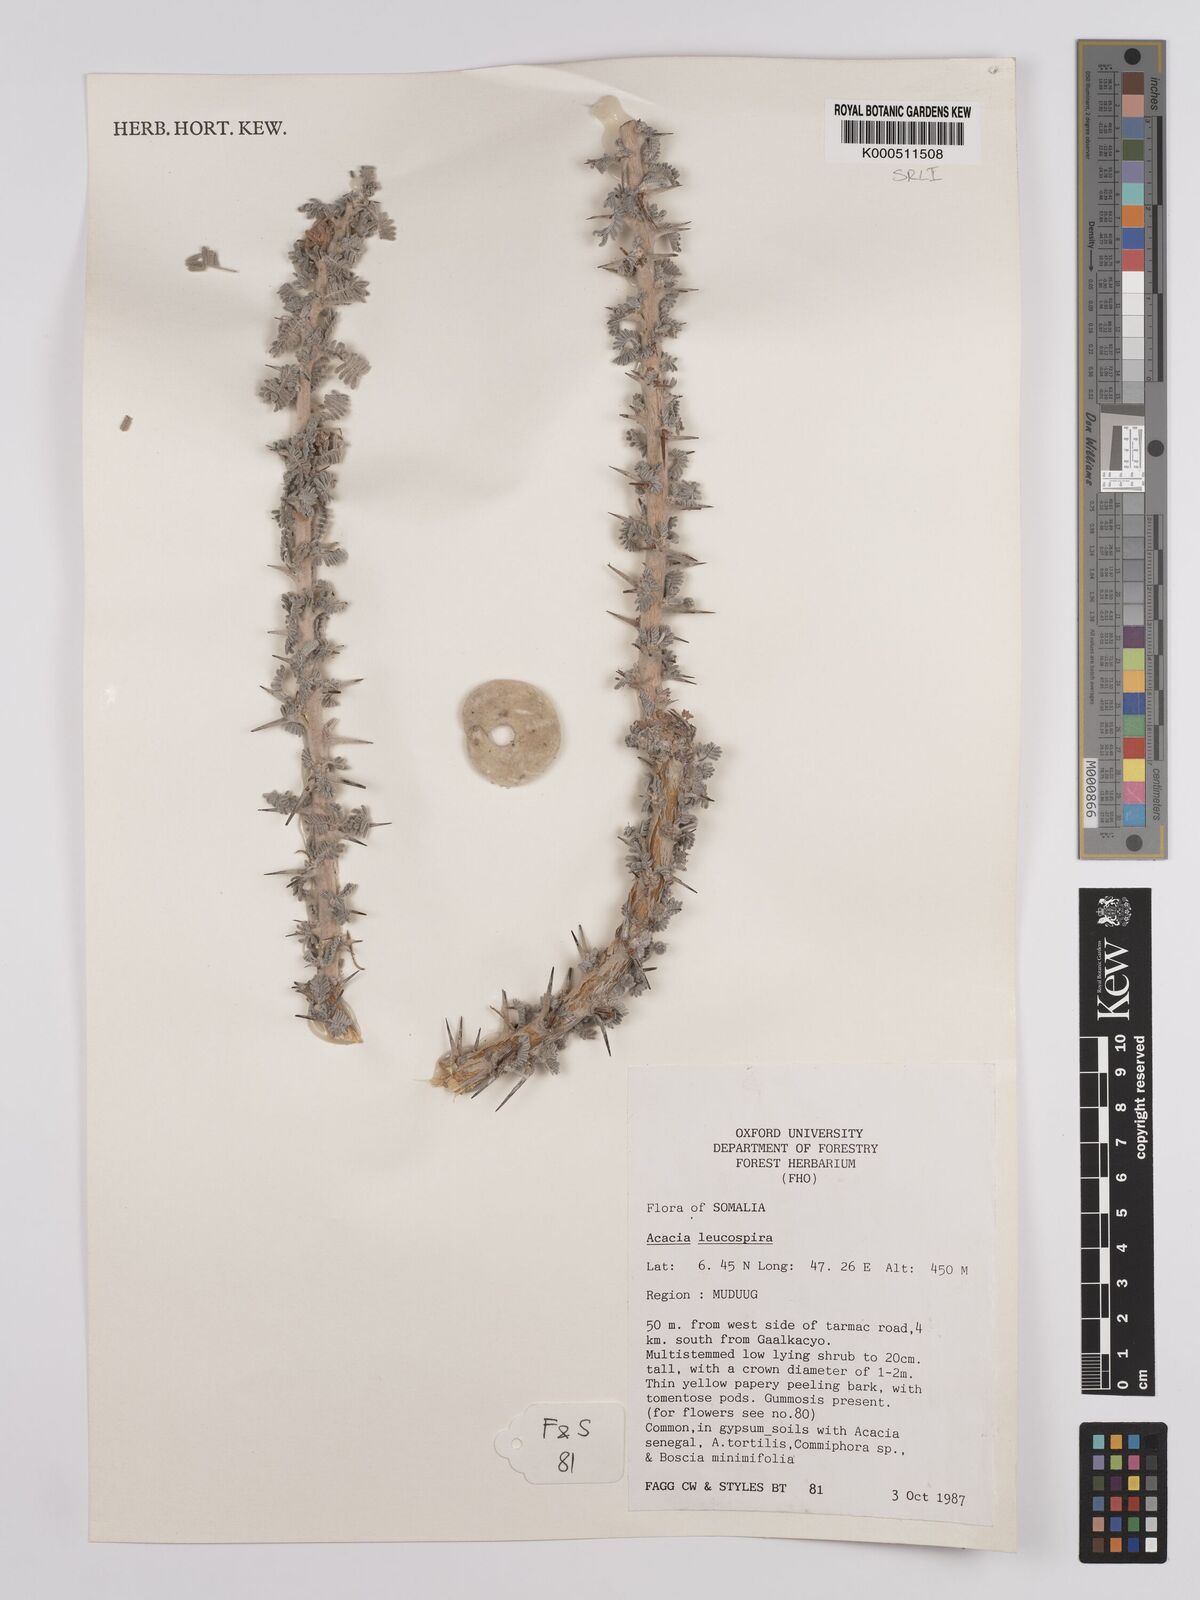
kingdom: Plantae
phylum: Tracheophyta
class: Magnoliopsida
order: Fabales
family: Fabaceae
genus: Vachellia
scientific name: Vachellia leucospira
